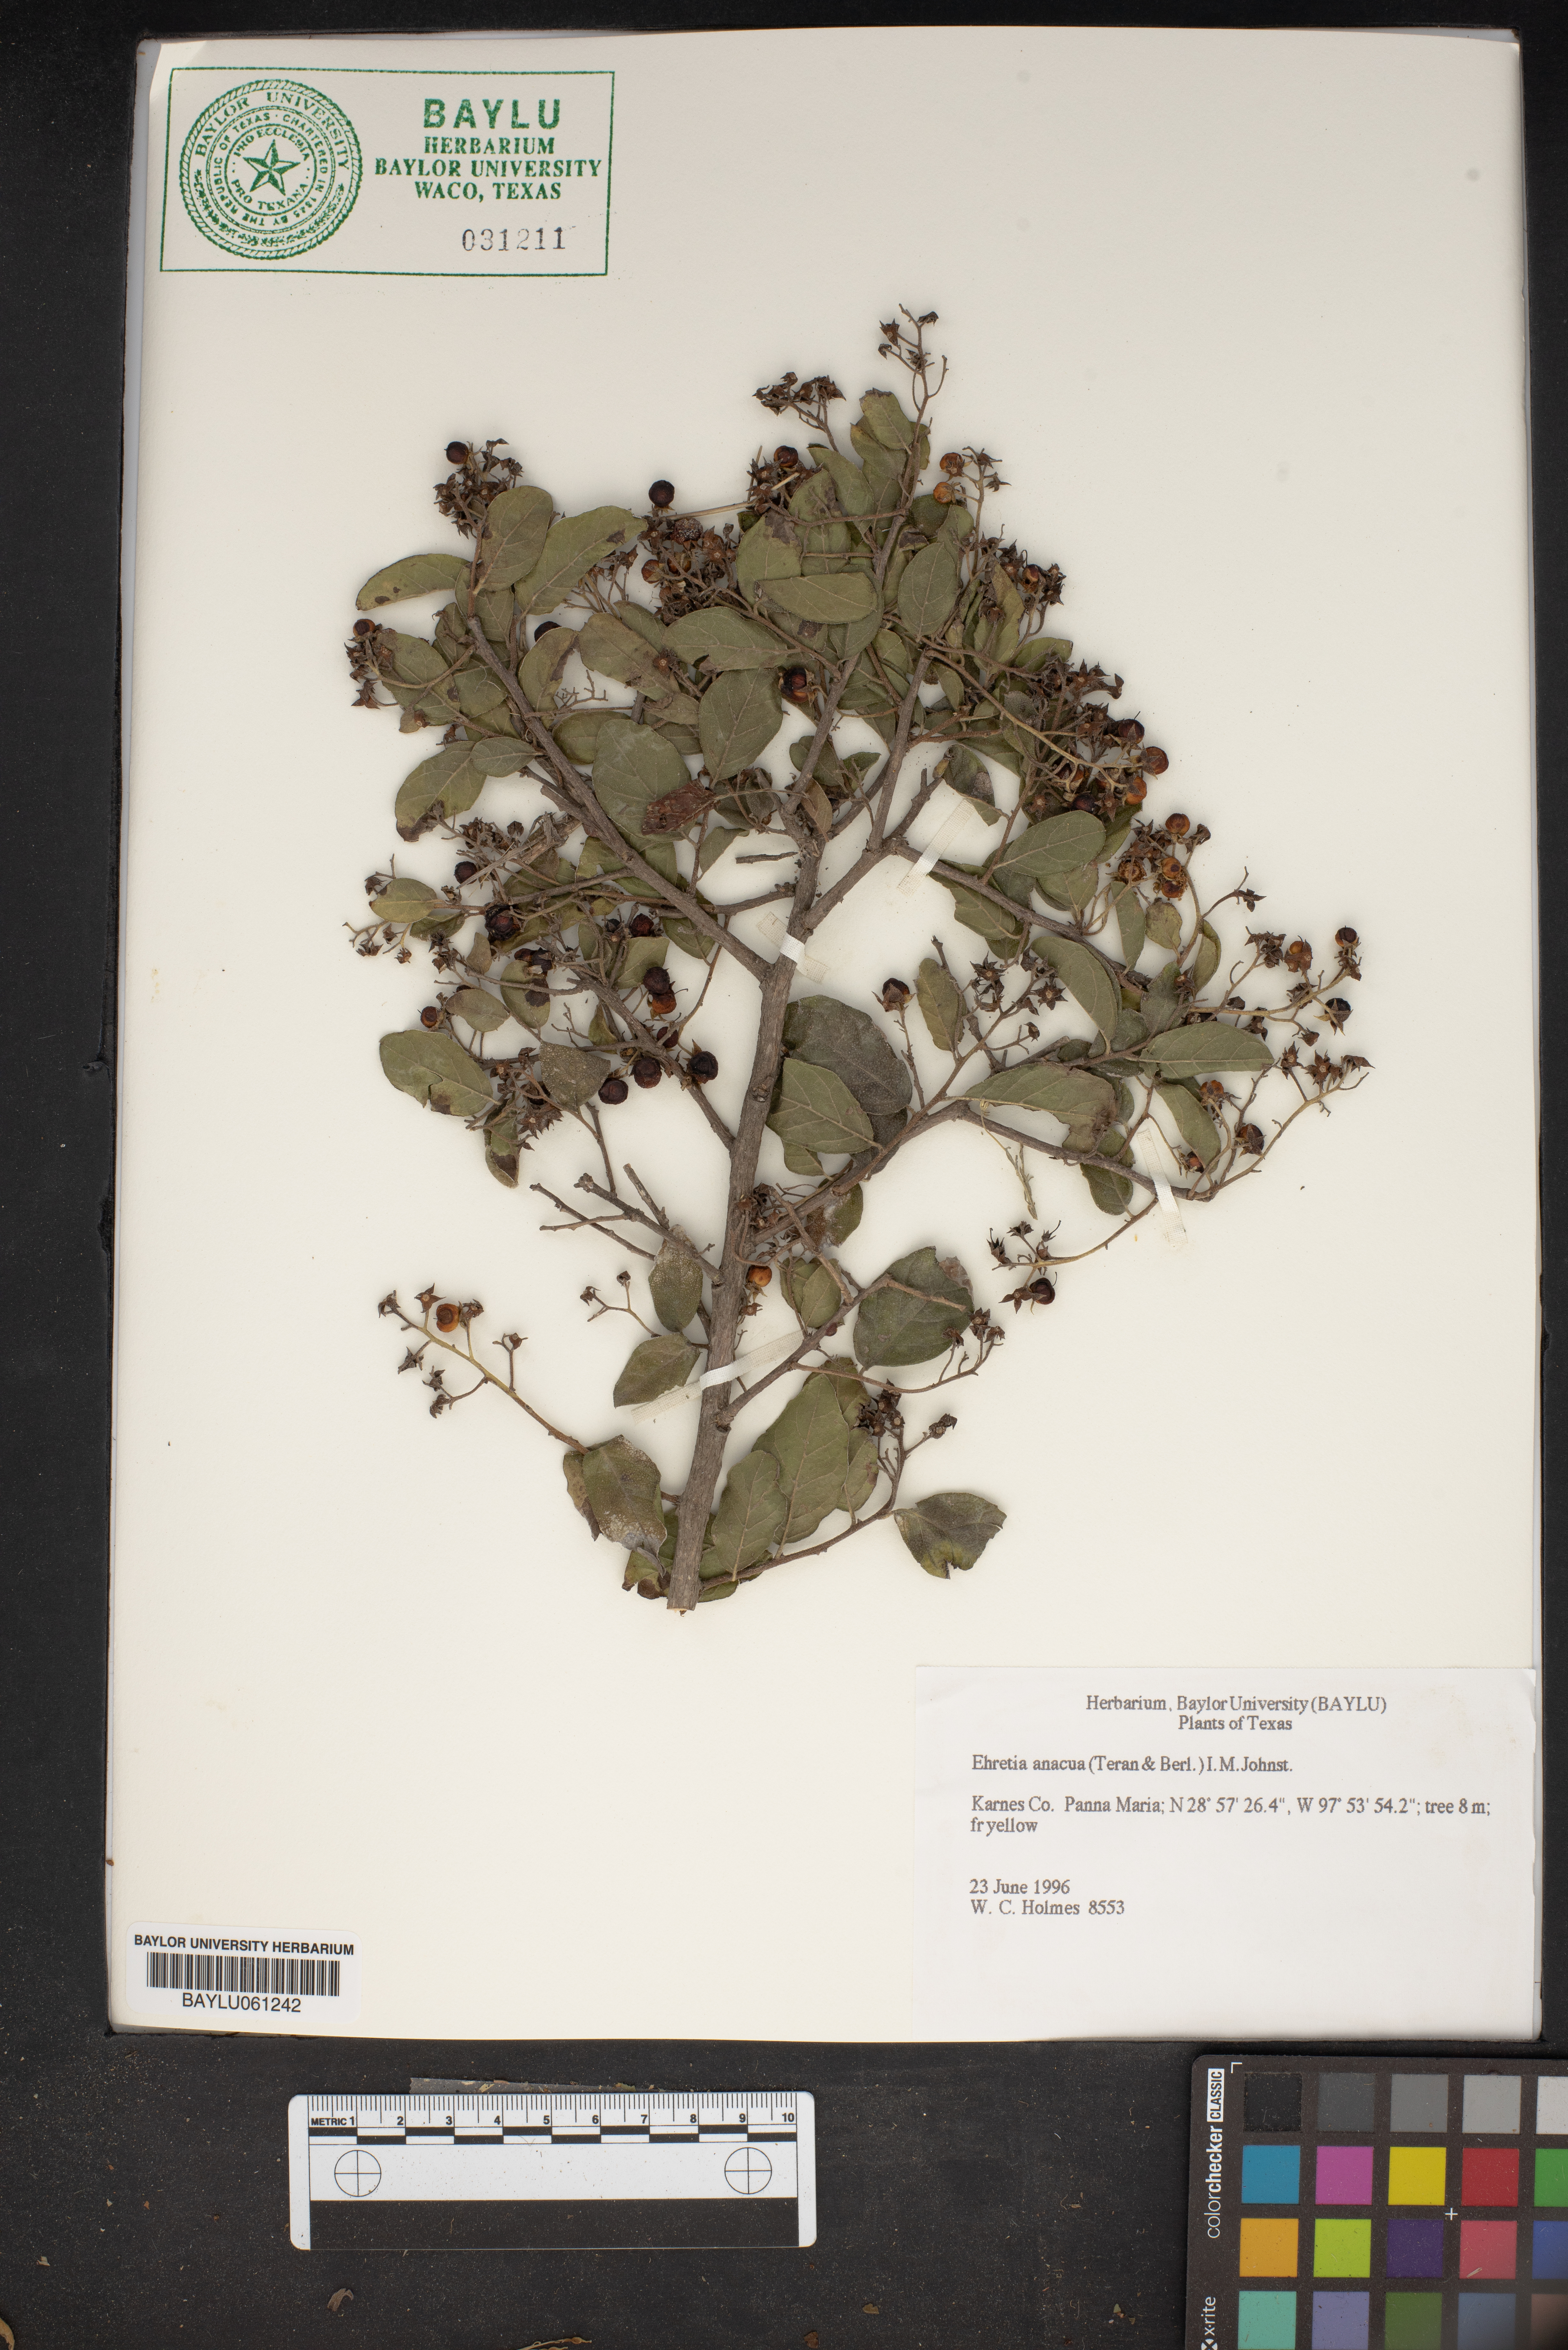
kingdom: Plantae
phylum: Tracheophyta
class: Magnoliopsida
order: Boraginales
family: Ehretiaceae
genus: Ehretia
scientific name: Ehretia anacua
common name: Sugarberry
